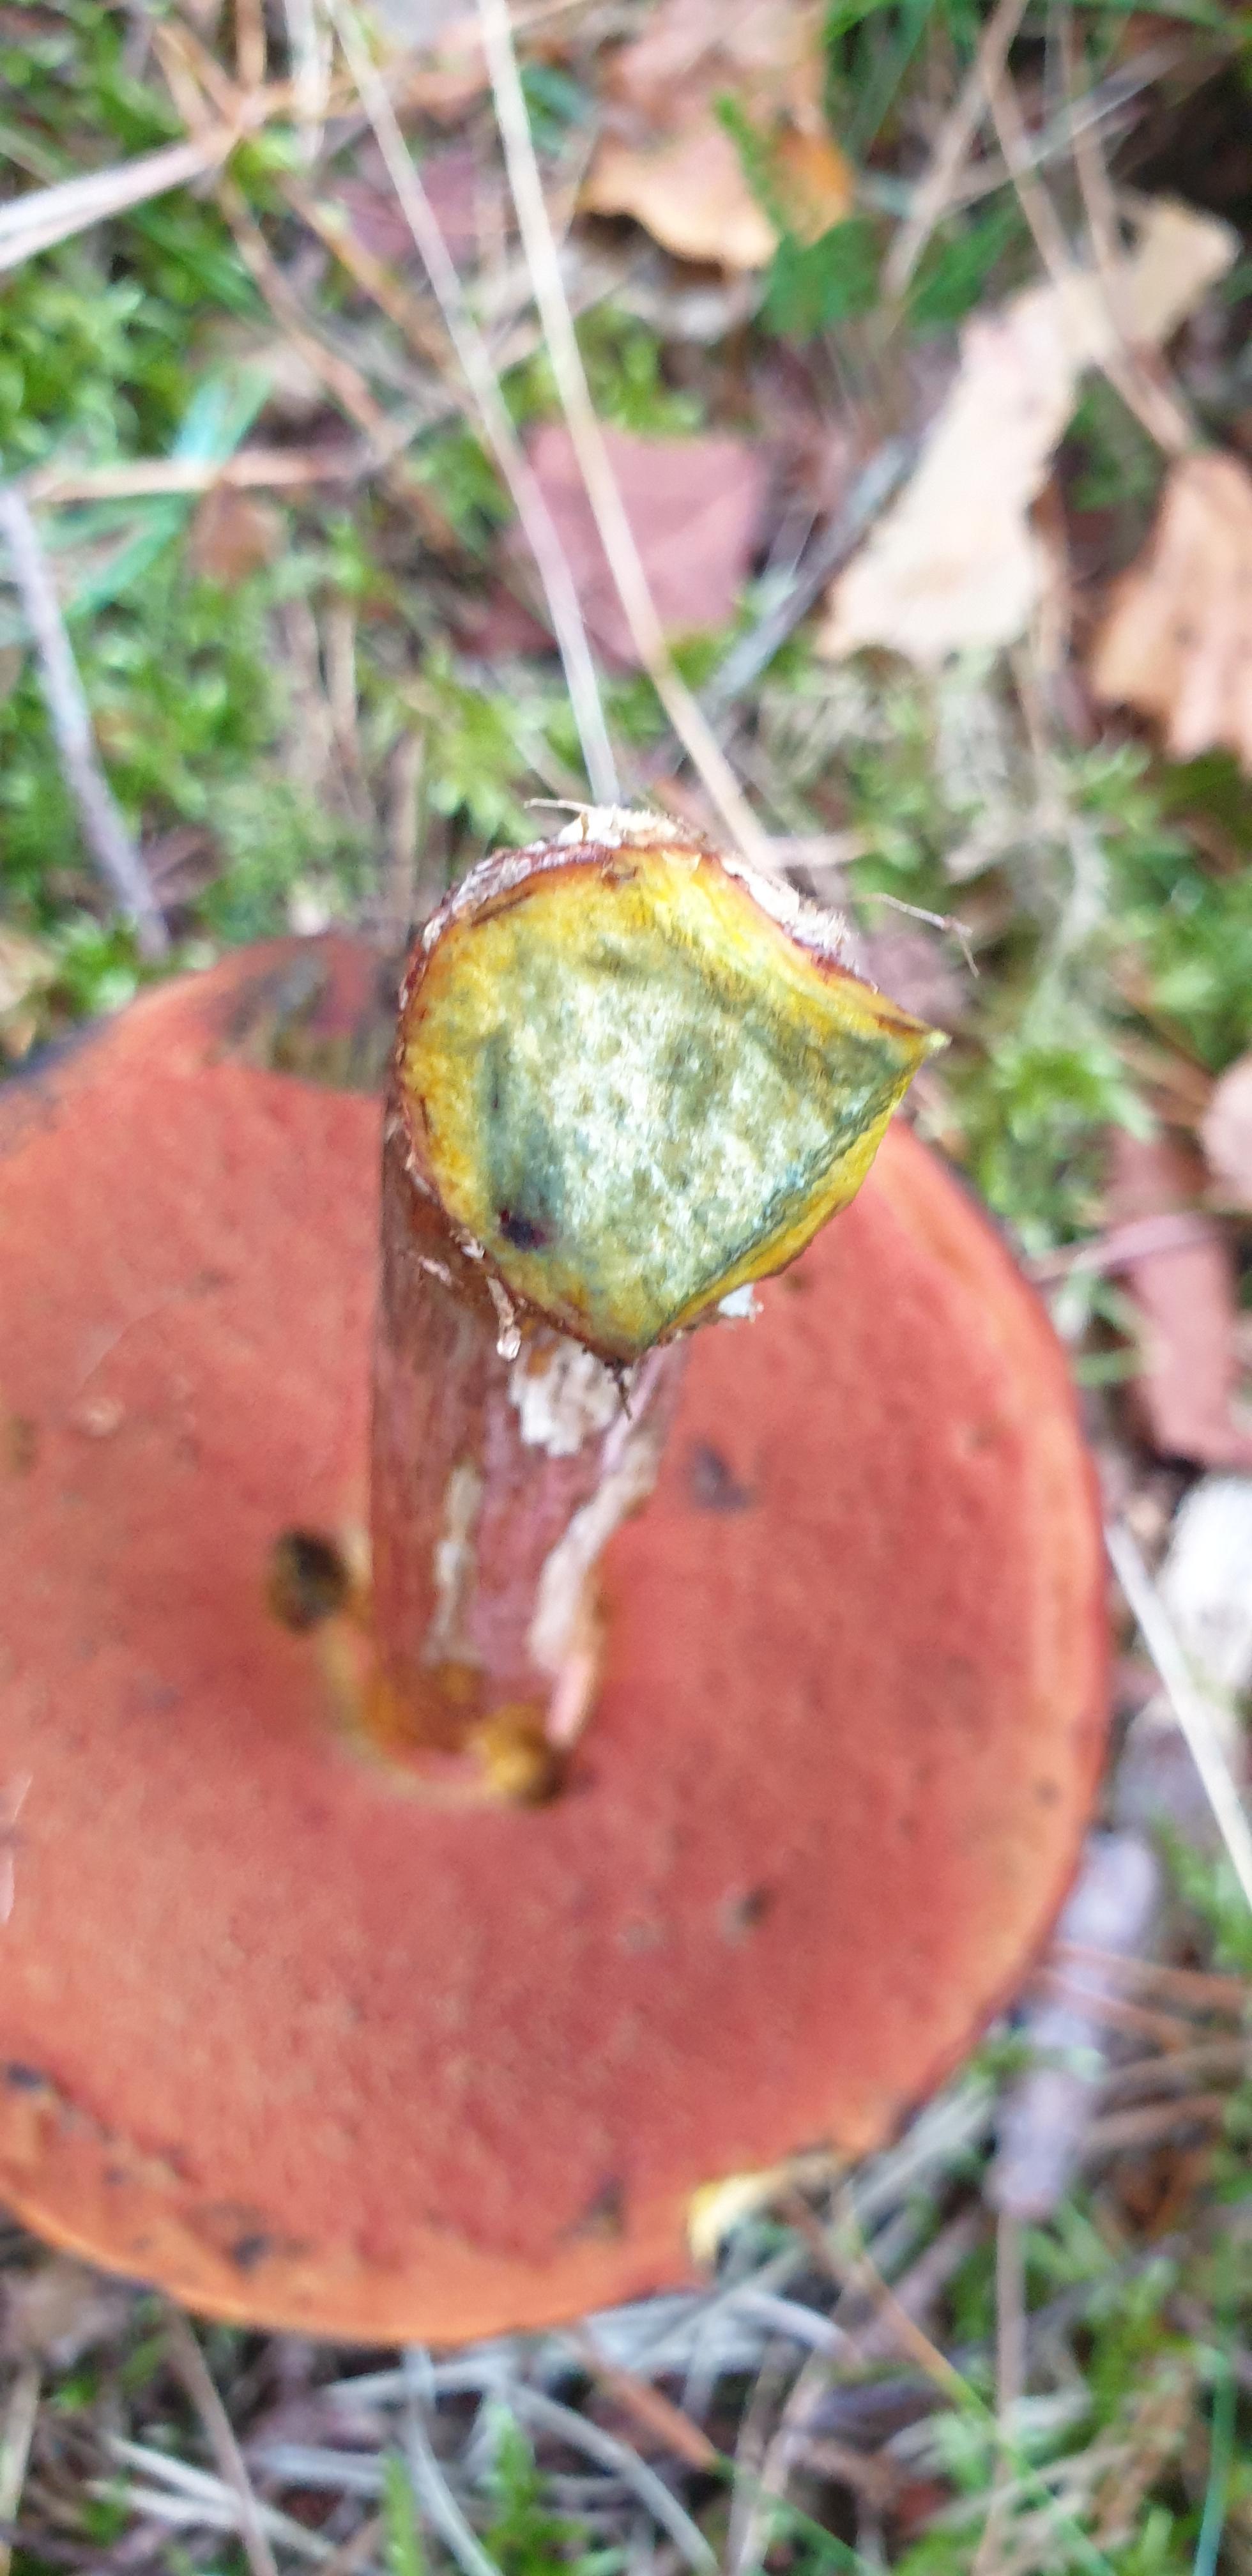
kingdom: Fungi
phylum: Basidiomycota
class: Agaricomycetes
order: Boletales
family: Boletaceae
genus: Neoboletus
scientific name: Neoboletus erythropus
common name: punktstokket indigorørhat
